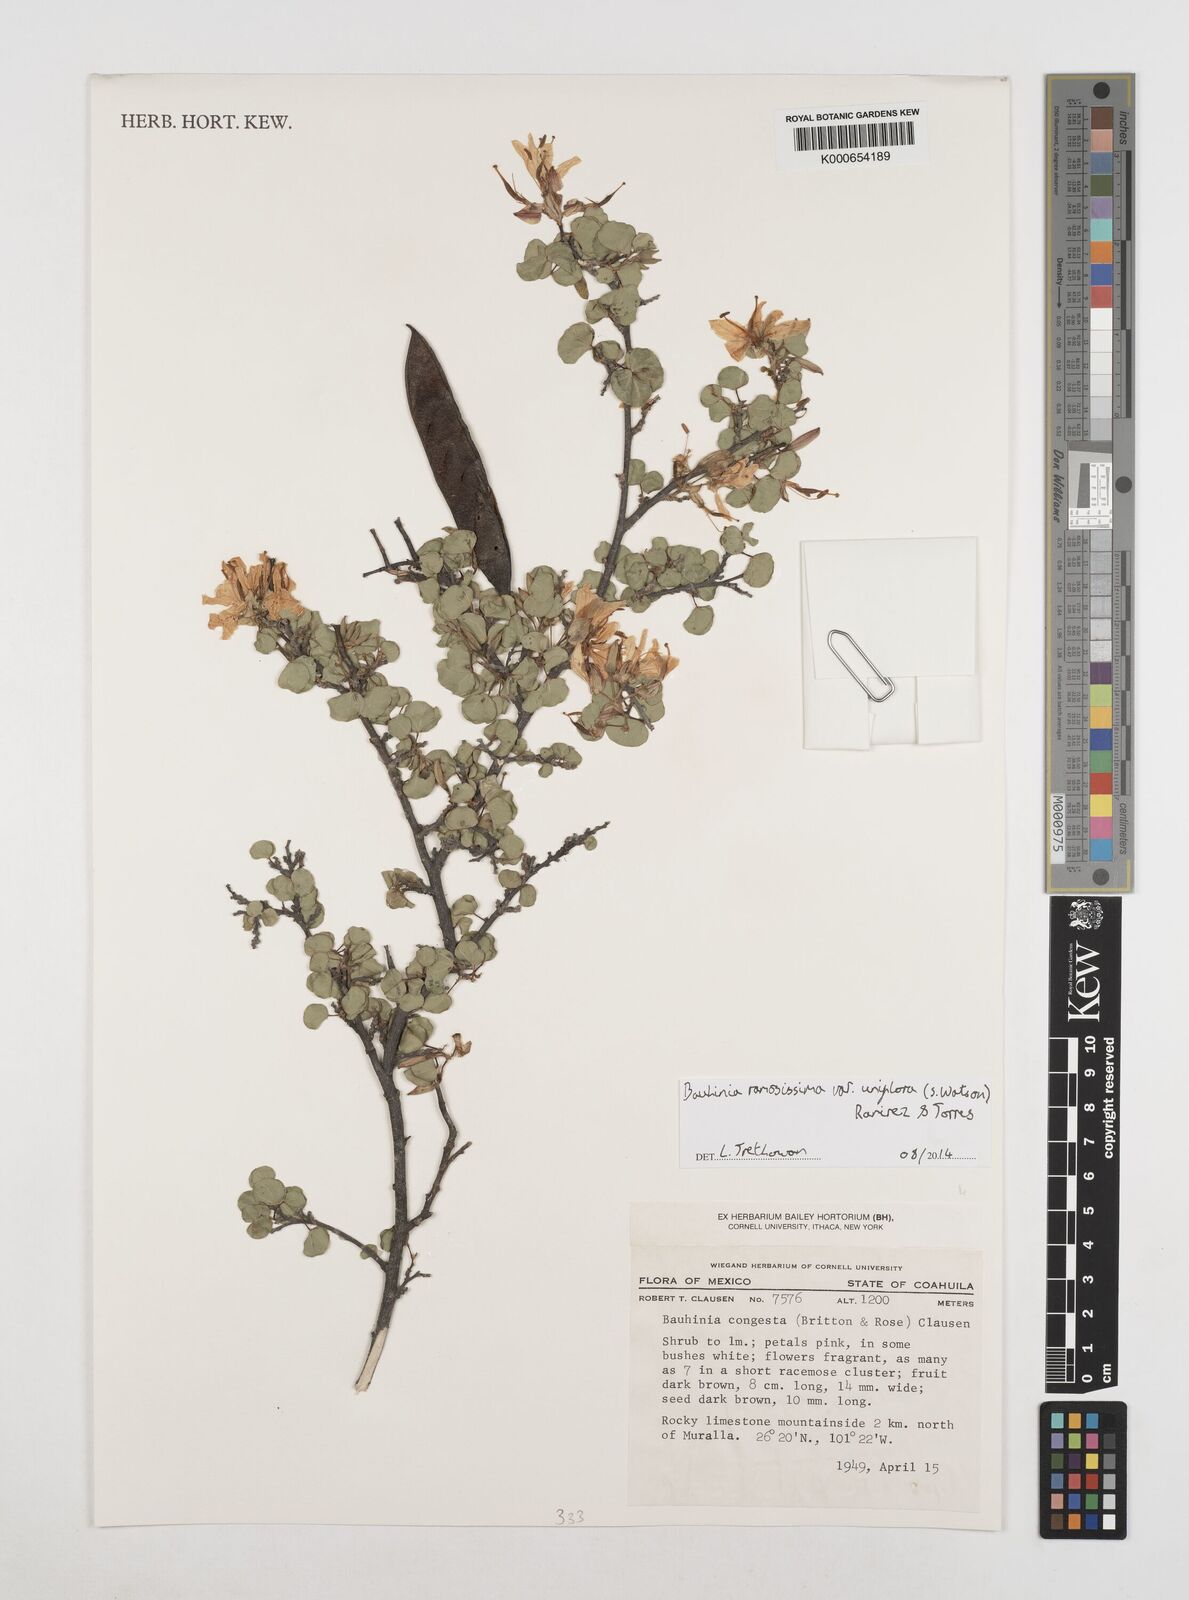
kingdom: Plantae
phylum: Tracheophyta
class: Magnoliopsida
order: Fabales
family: Fabaceae
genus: Bauhinia
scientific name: Bauhinia ramosissima
